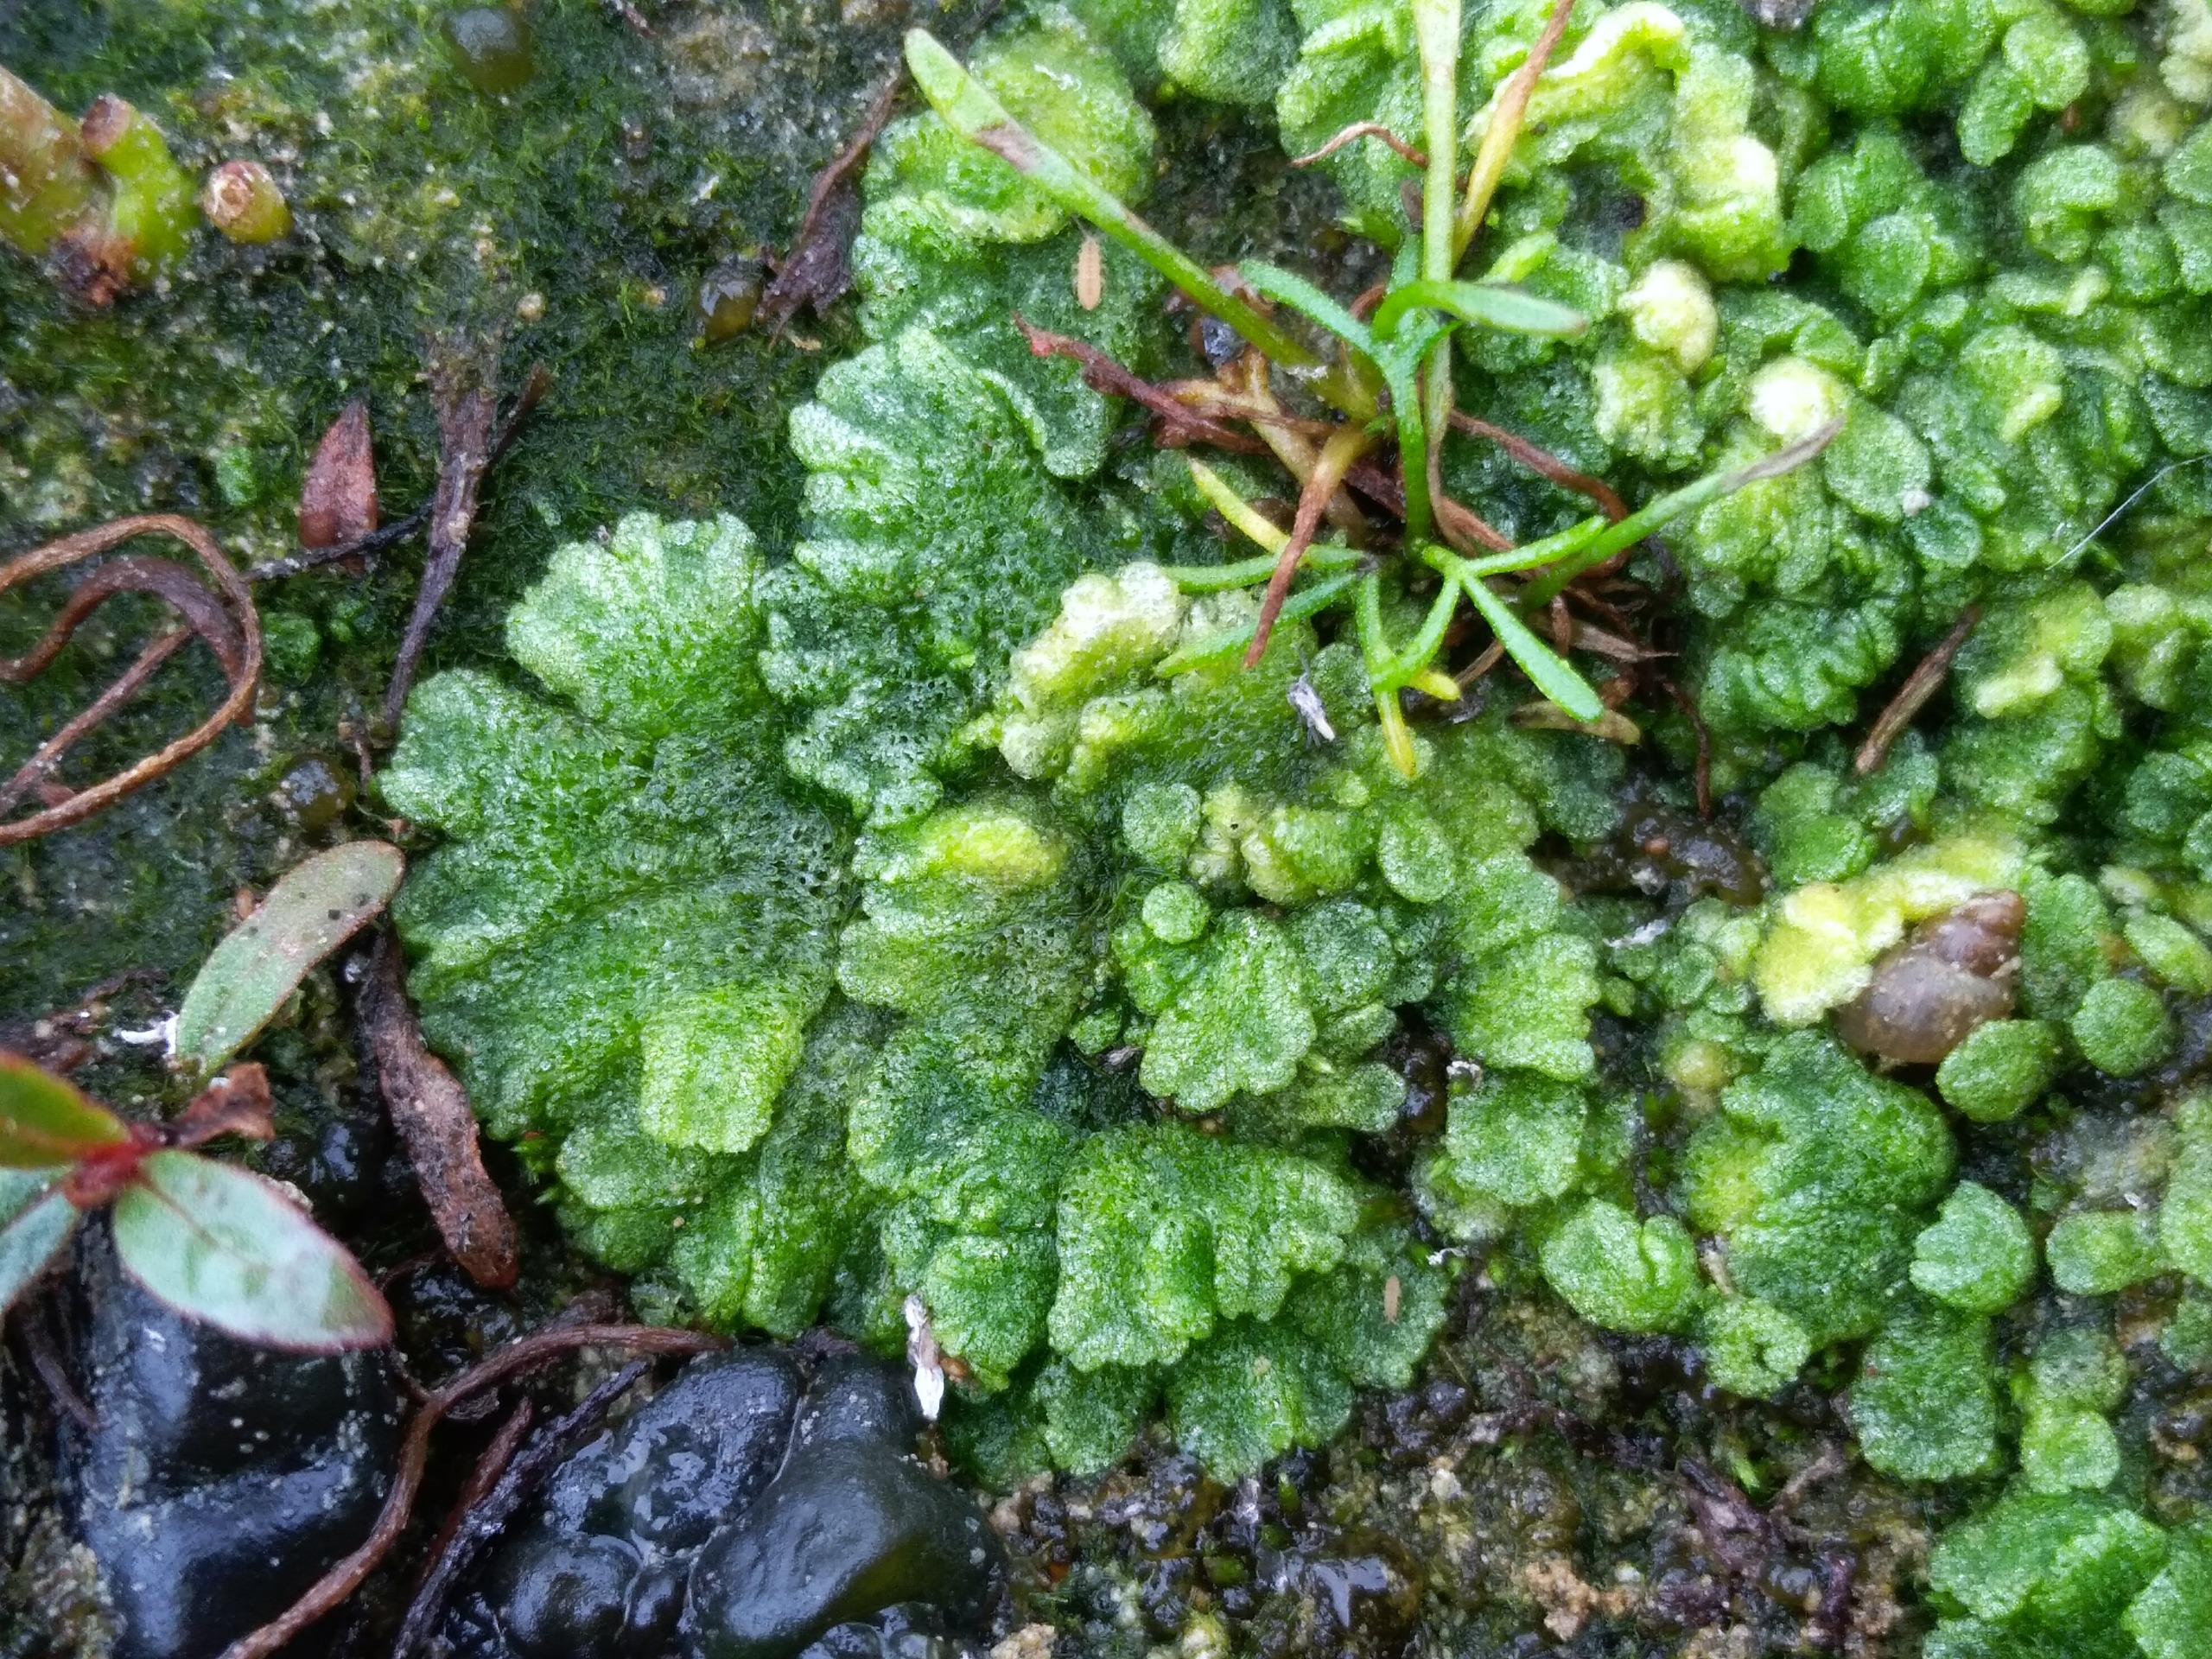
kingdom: Plantae
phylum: Marchantiophyta
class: Marchantiopsida
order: Marchantiales
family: Ricciaceae
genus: Riccia
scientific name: Riccia cavernosa
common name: Grubet stjerneløv
